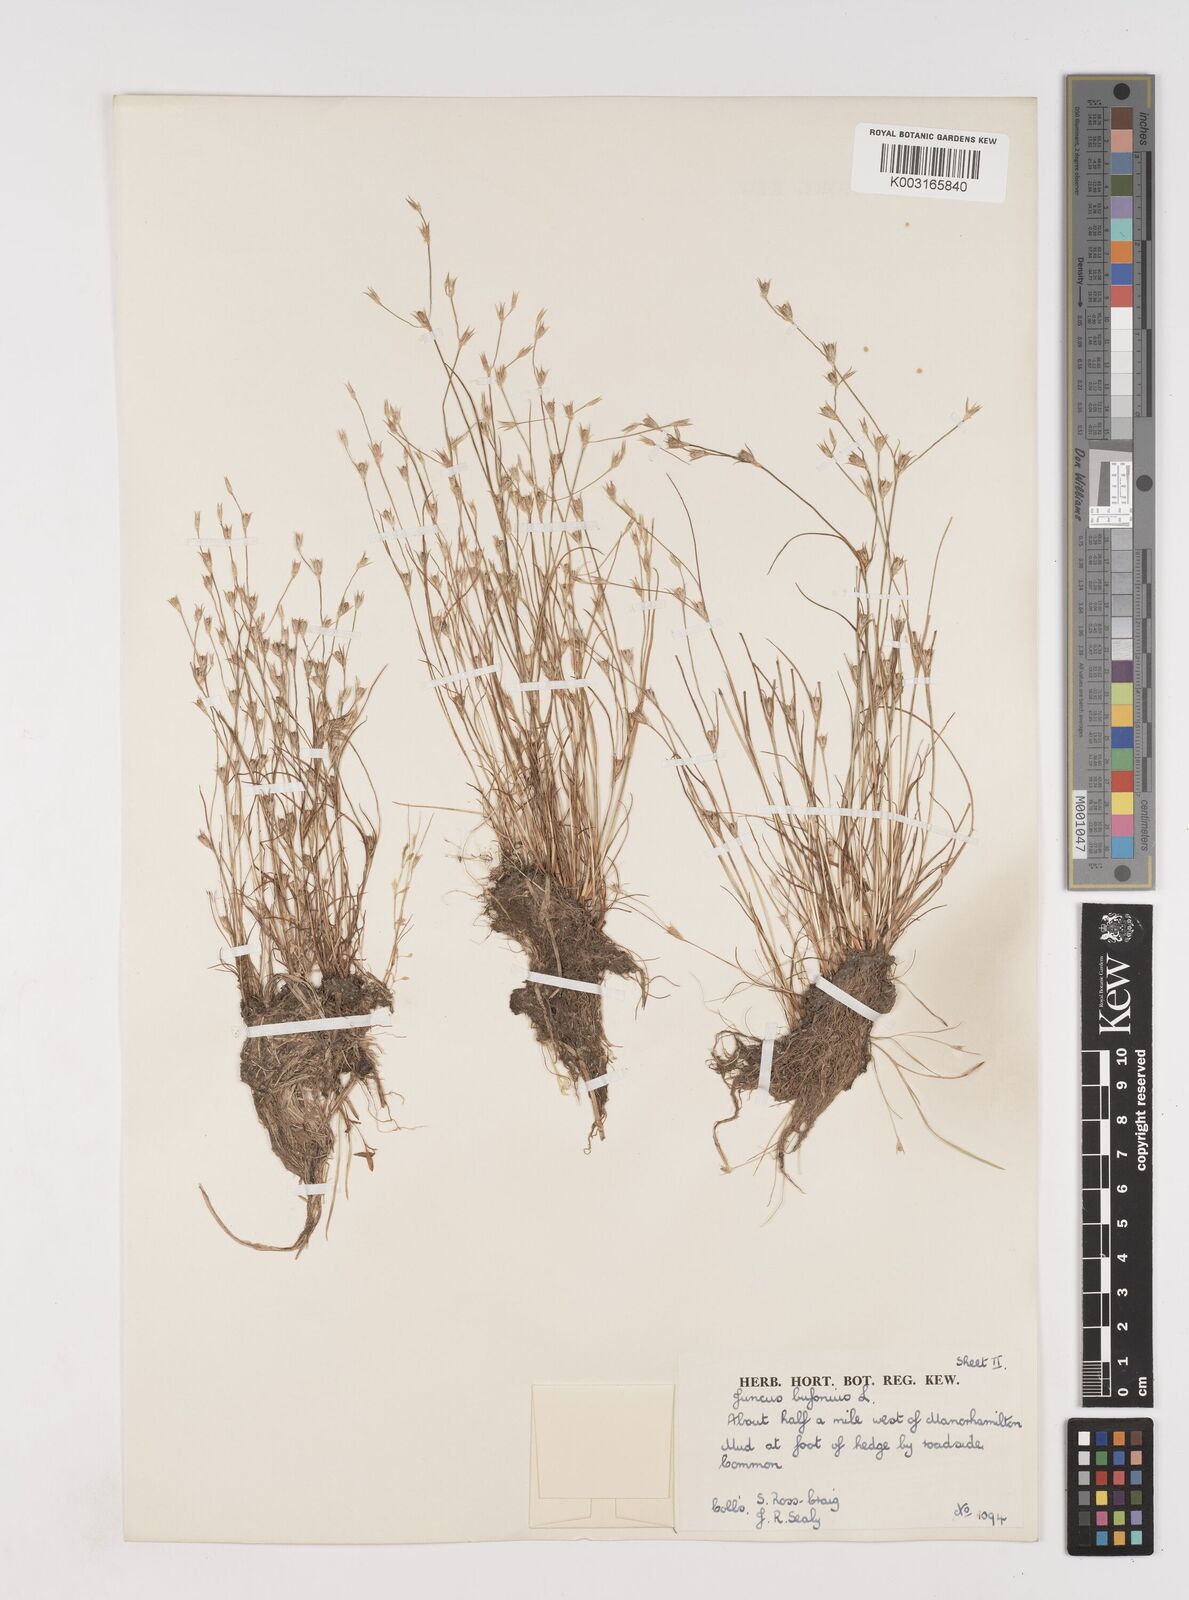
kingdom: Plantae
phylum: Tracheophyta
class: Liliopsida
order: Poales
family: Juncaceae
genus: Juncus
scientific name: Juncus bufonius
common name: Toad rush
